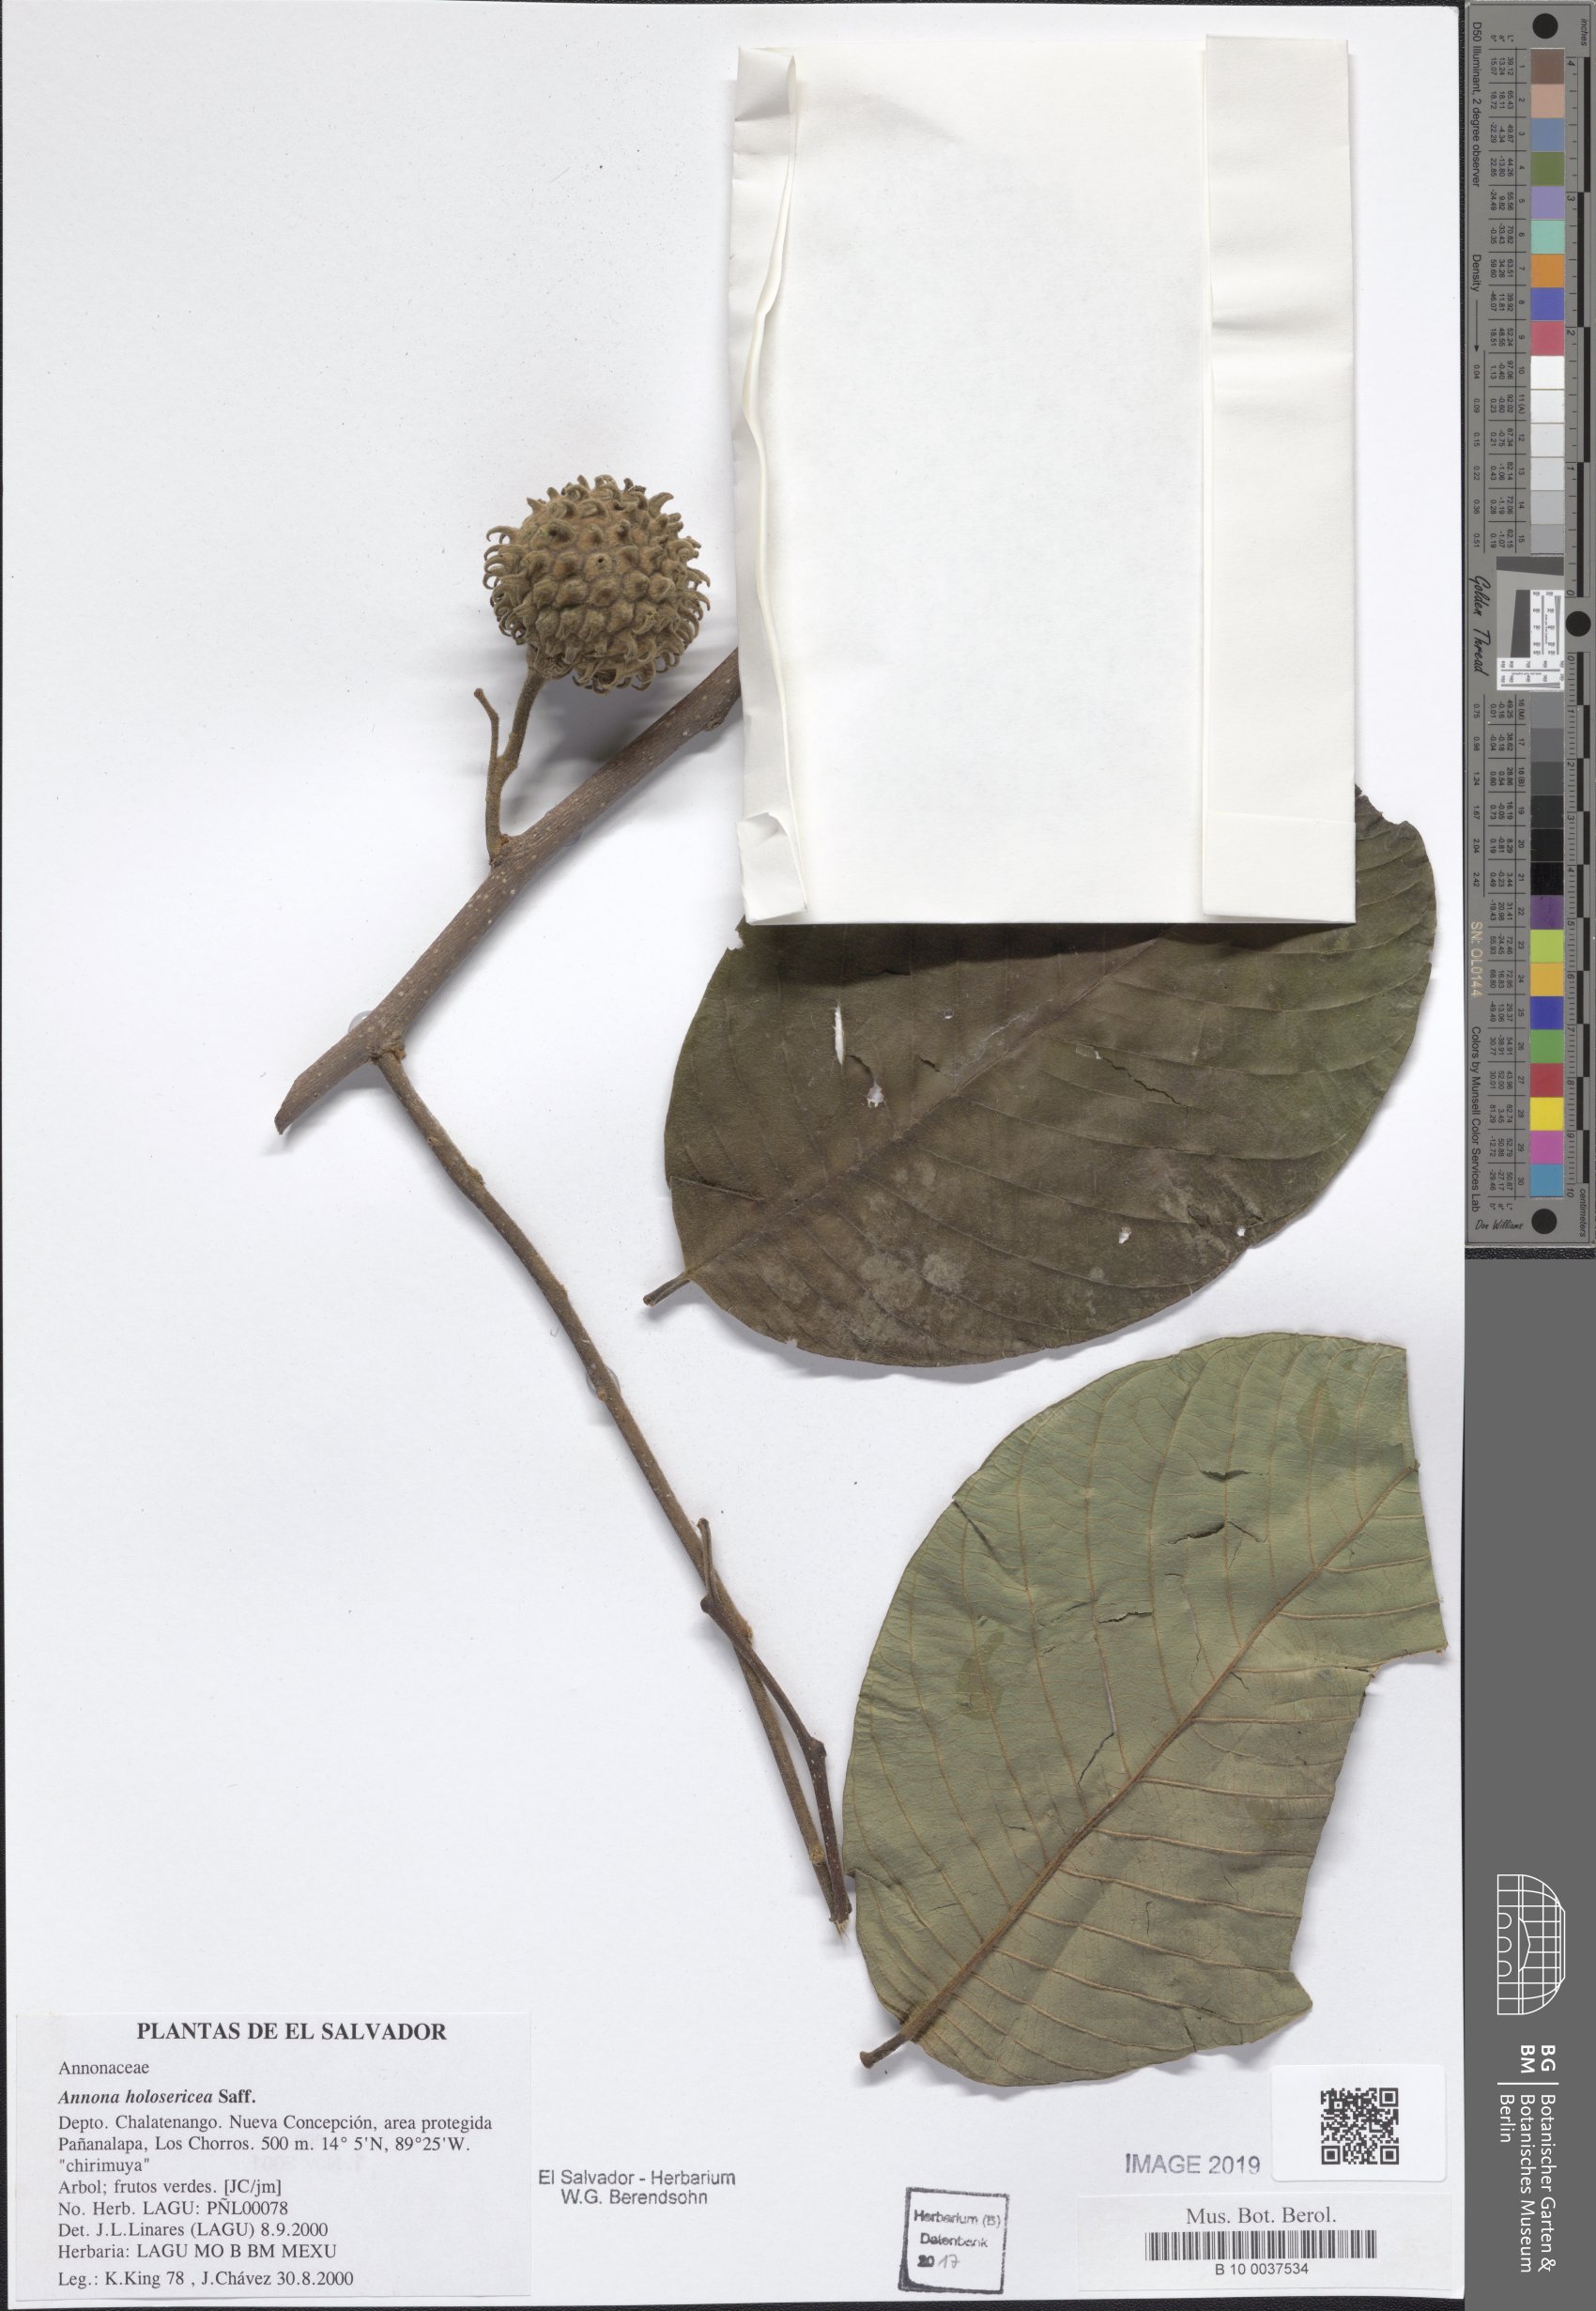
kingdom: Plantae
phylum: Tracheophyta
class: Magnoliopsida
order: Magnoliales
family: Annonaceae
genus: Annona
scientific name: Annona holosericea
